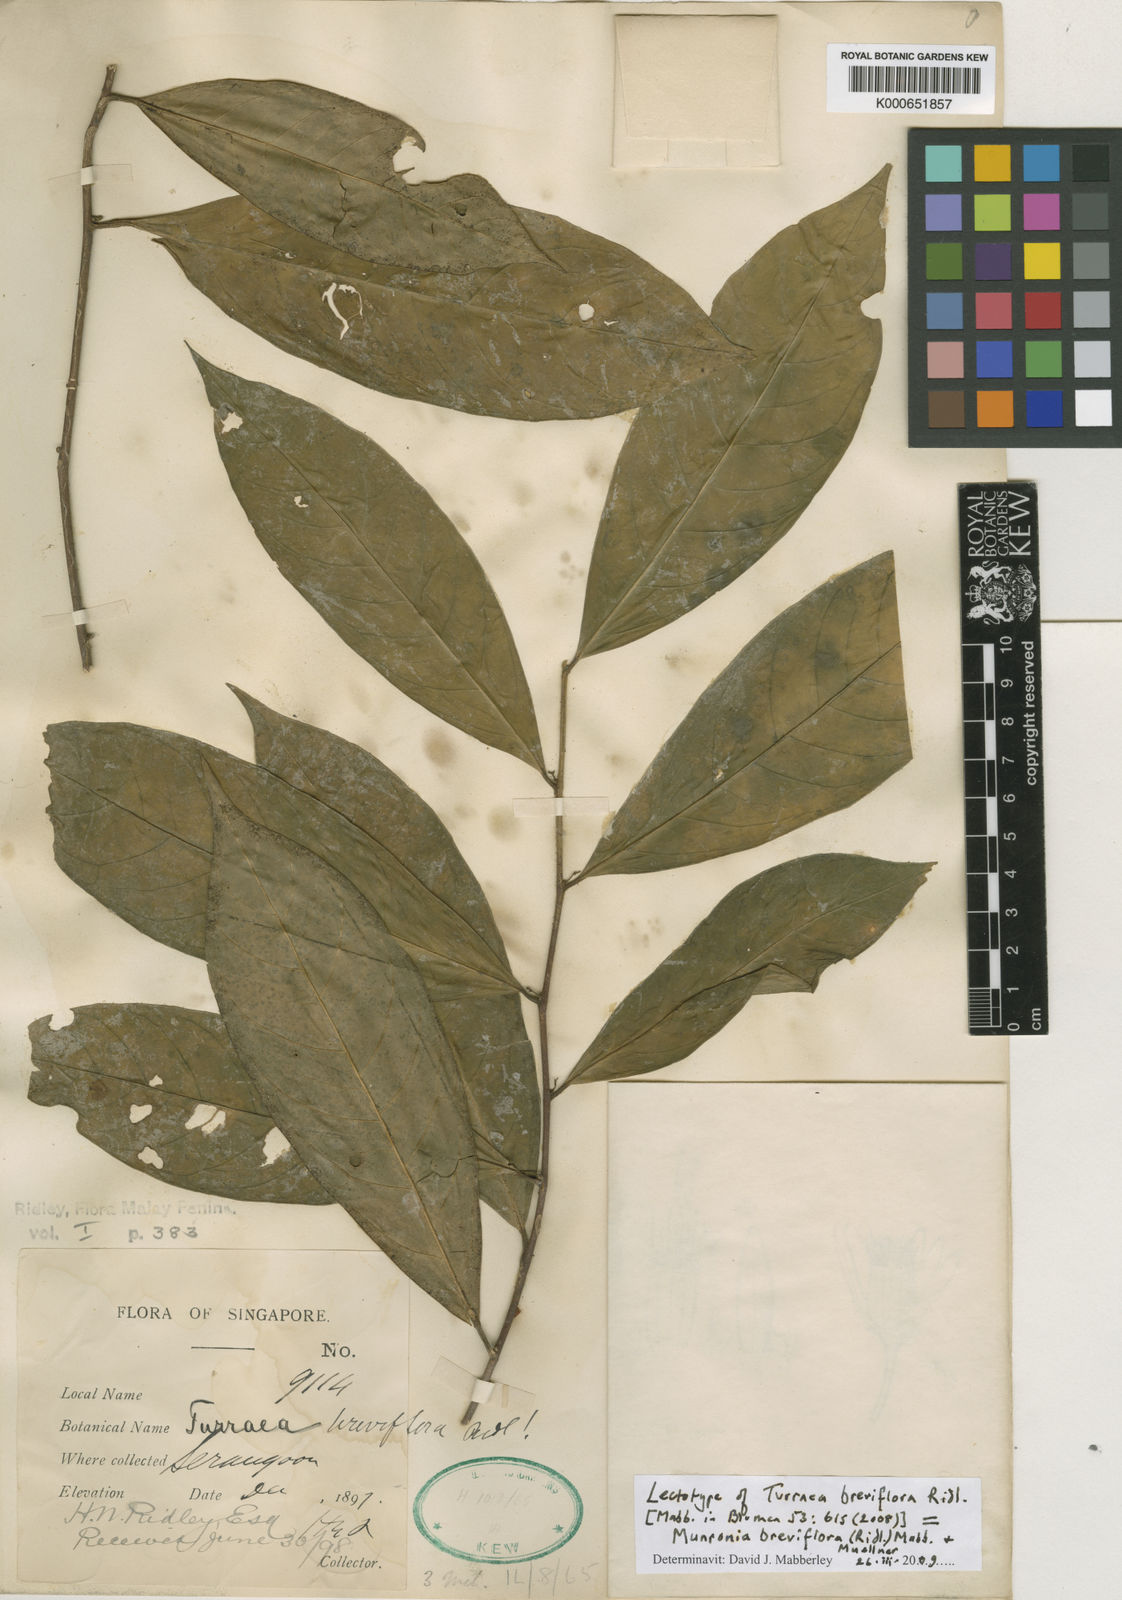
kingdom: Plantae
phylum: Tracheophyta
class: Magnoliopsida
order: Sapindales
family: Meliaceae
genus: Munronia
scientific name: Munronia breviflora
